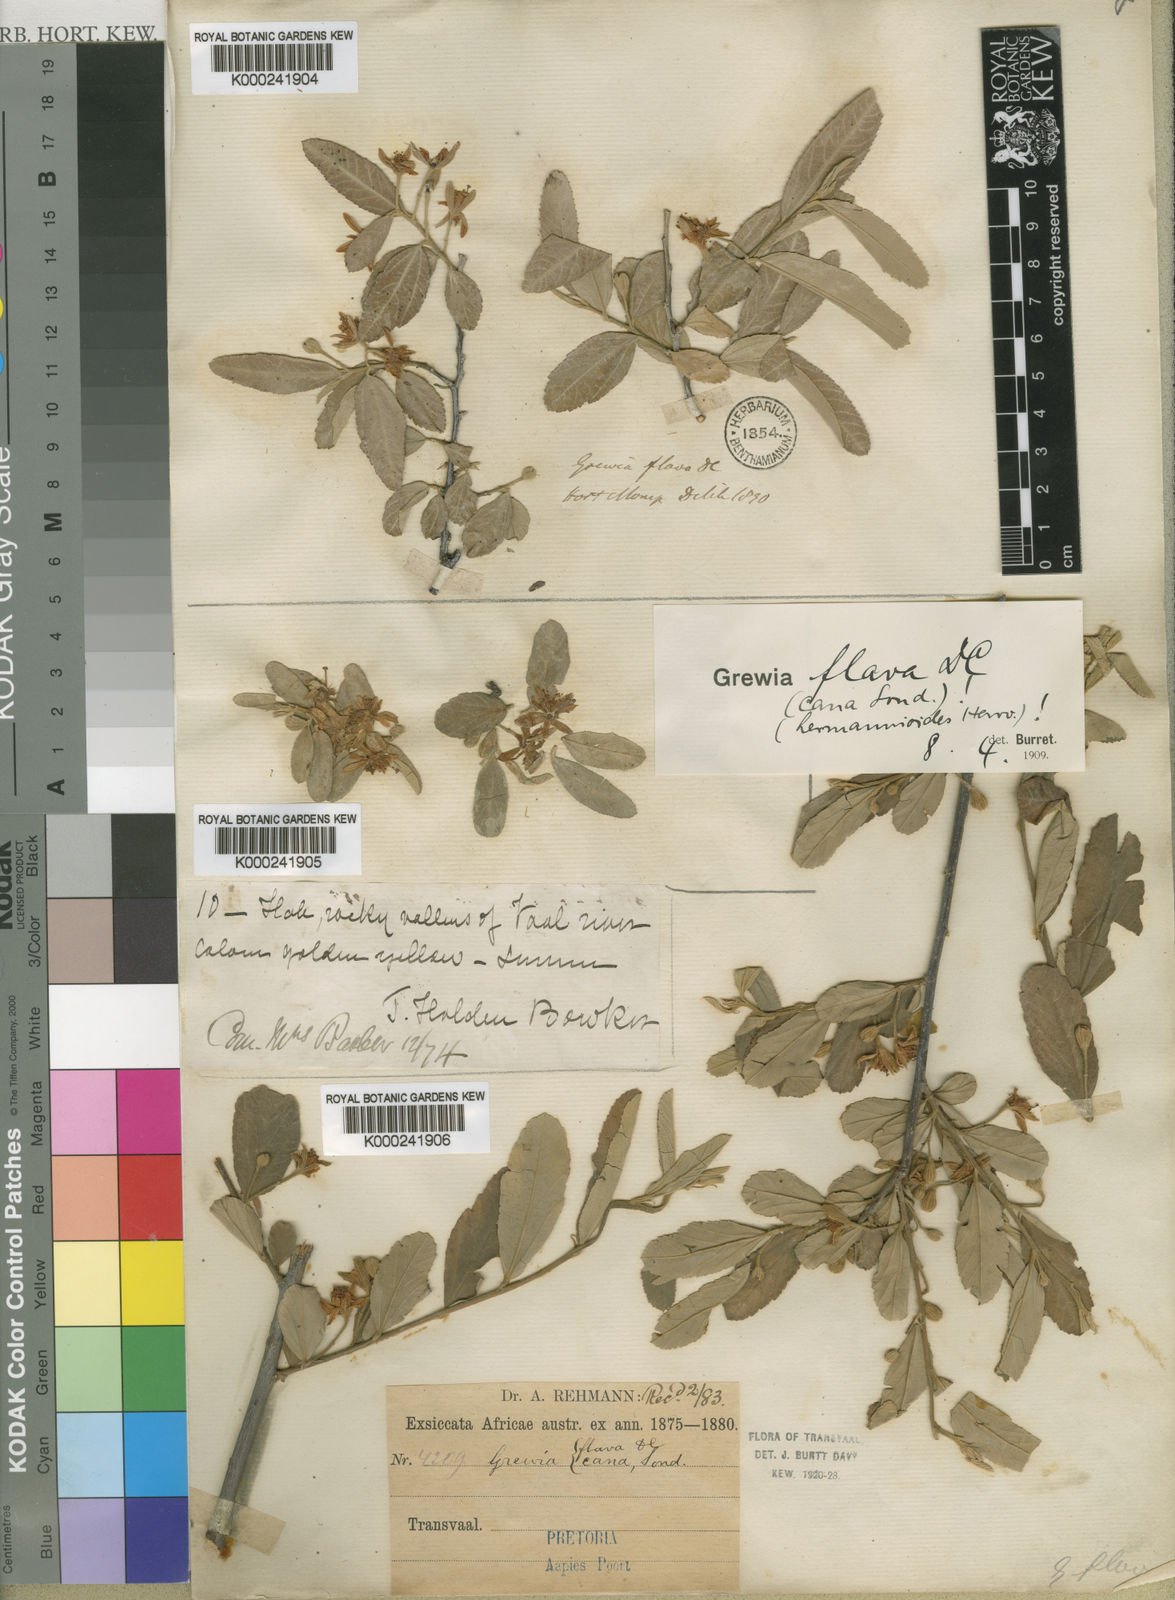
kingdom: Plantae
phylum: Tracheophyta
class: Magnoliopsida
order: Malvales
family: Malvaceae
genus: Grewia
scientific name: Grewia flava
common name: Brandy bush
